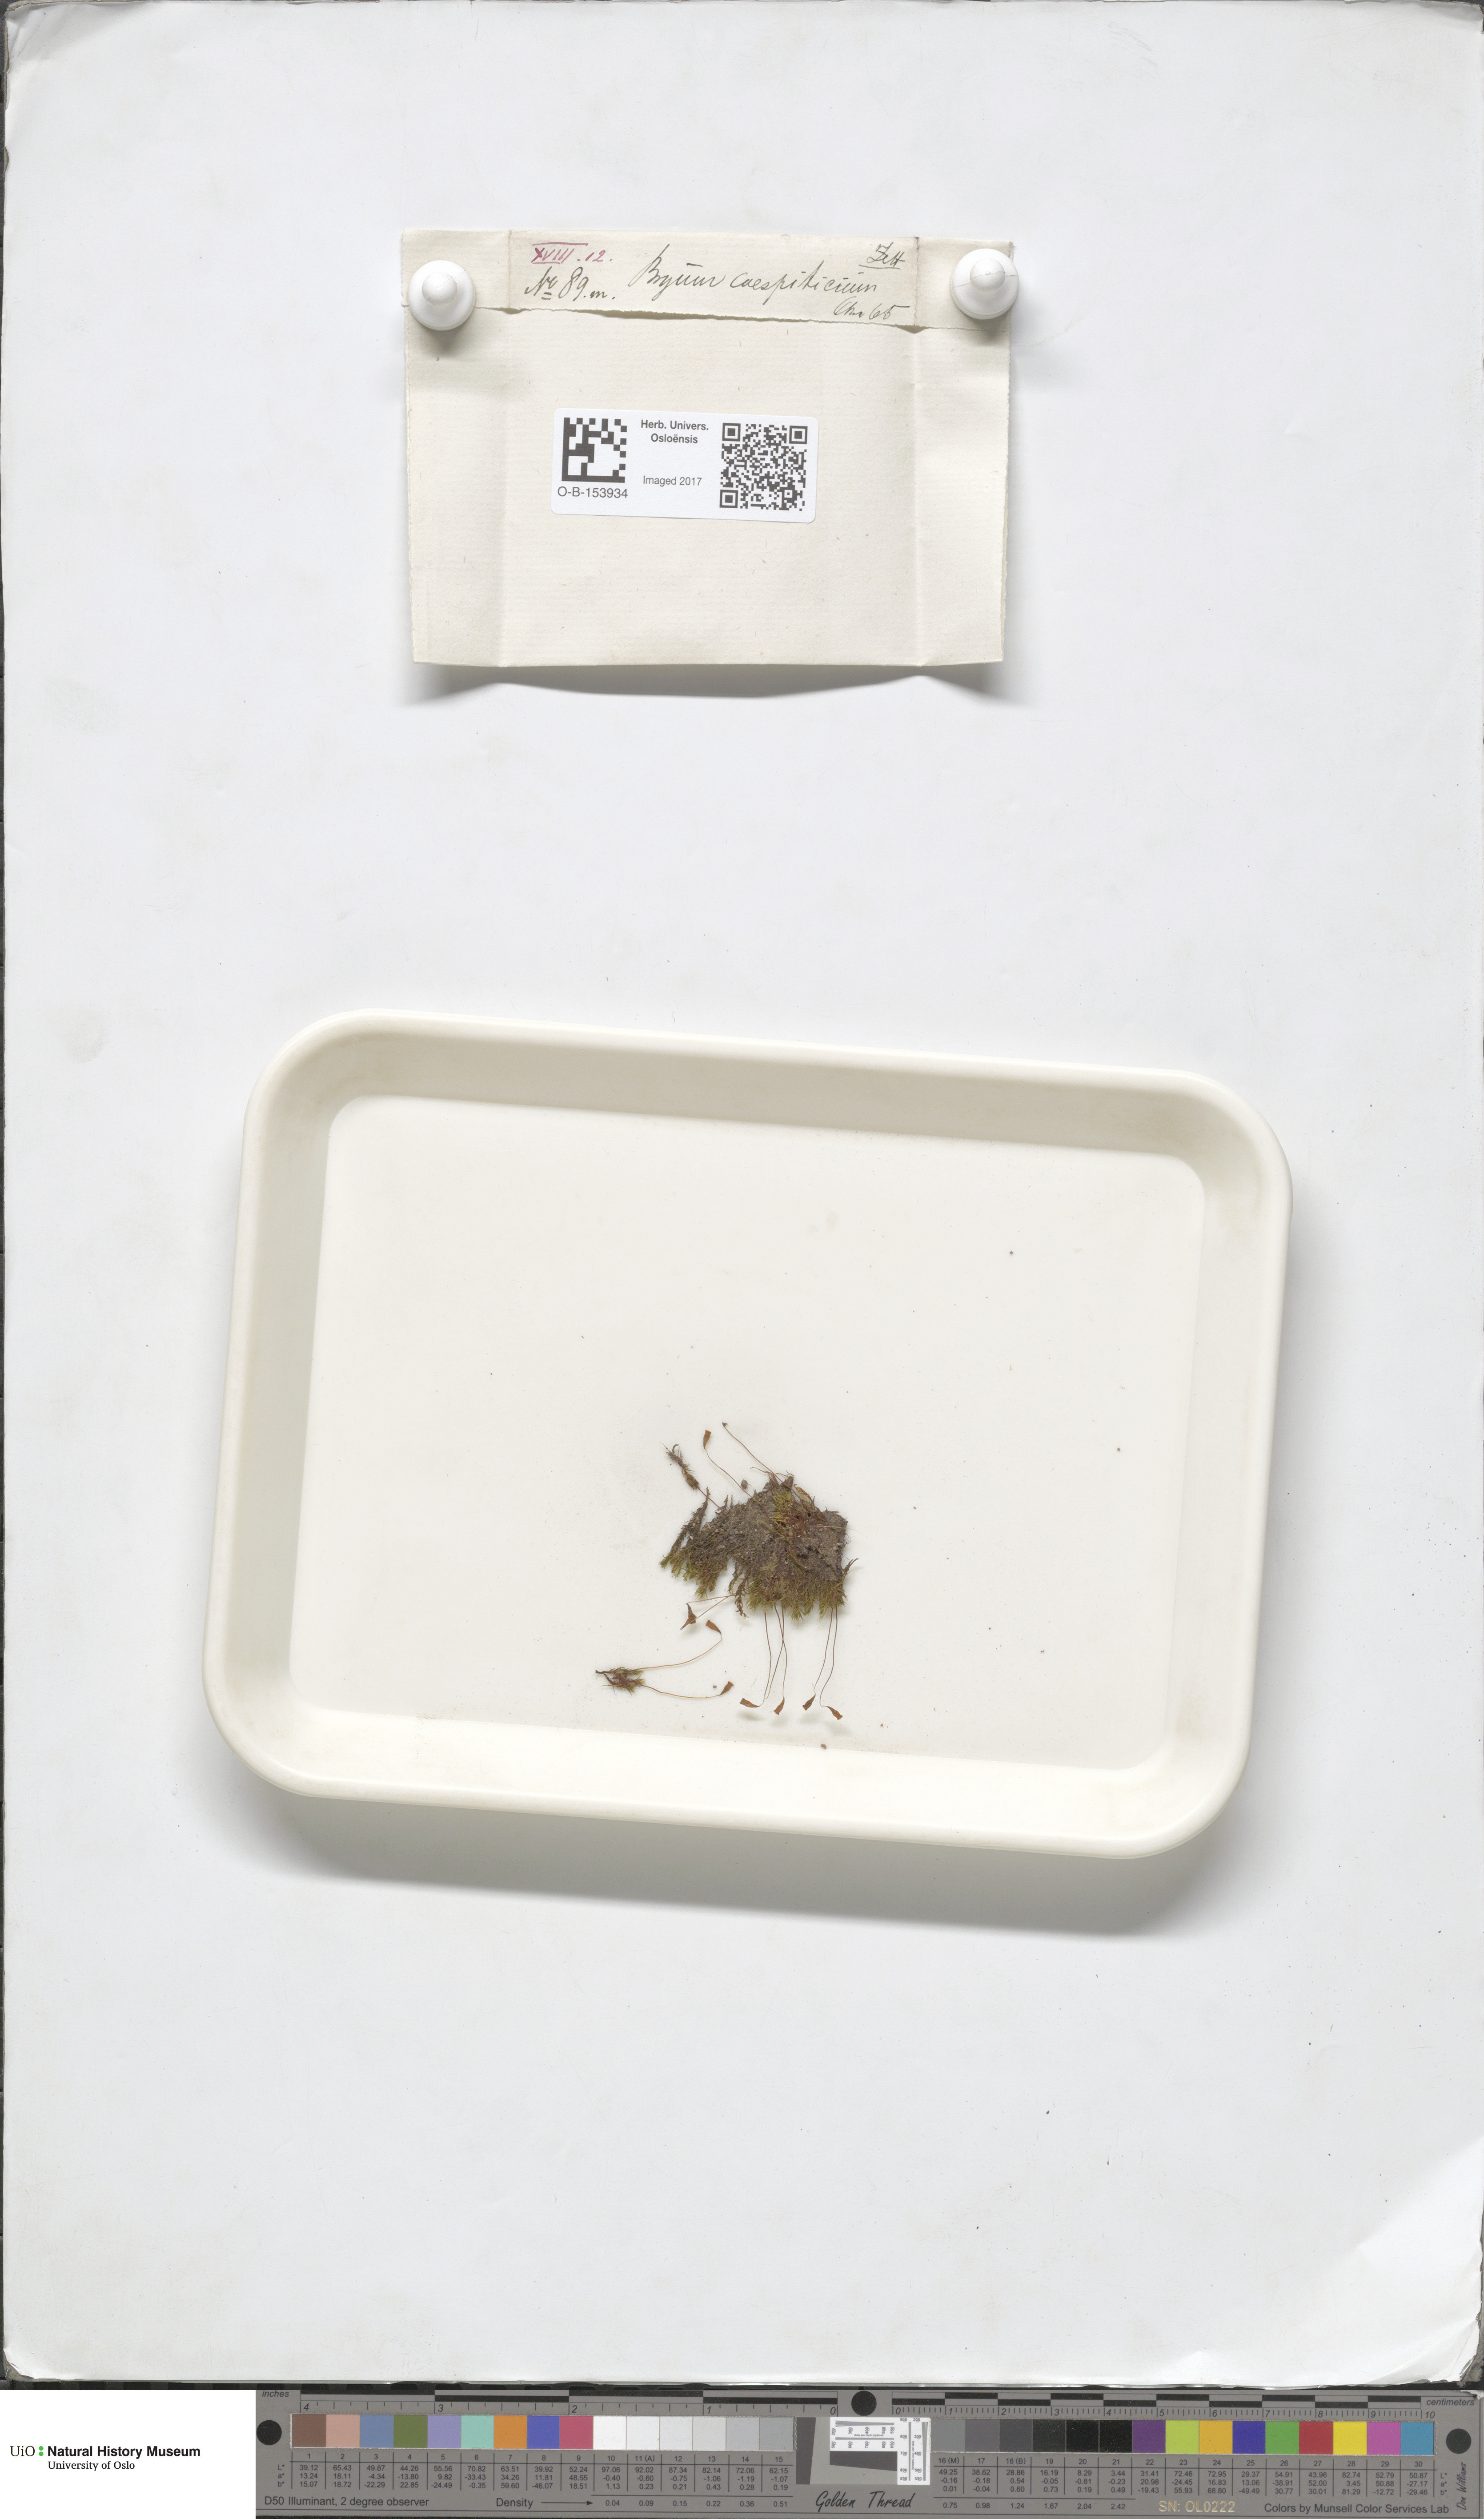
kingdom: Plantae
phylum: Bryophyta
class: Bryopsida
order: Bryales
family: Bryaceae
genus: Gemmabryum
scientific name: Gemmabryum caespiticium
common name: Handbell moss
